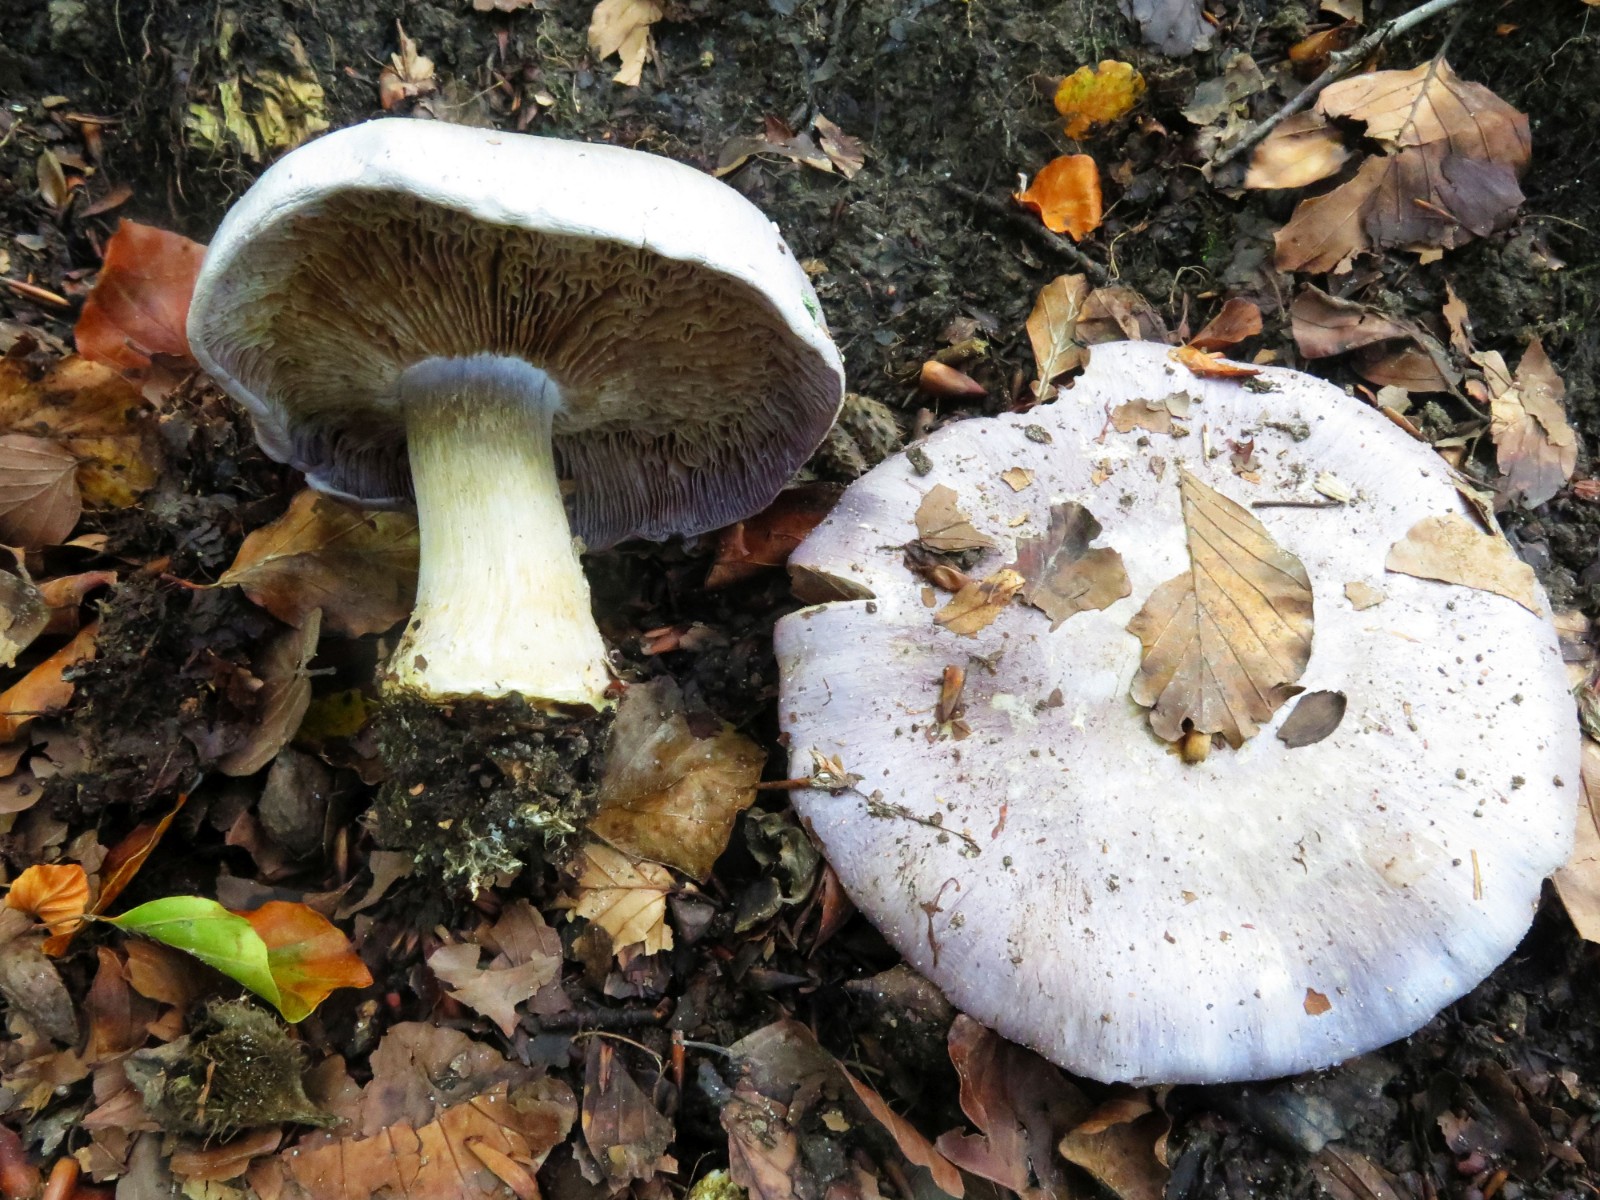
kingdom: Fungi
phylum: Basidiomycota
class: Agaricomycetes
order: Agaricales
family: Cortinariaceae
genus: Cortinarius
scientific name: Cortinarius caerulescens
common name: blåkødet slørhat
